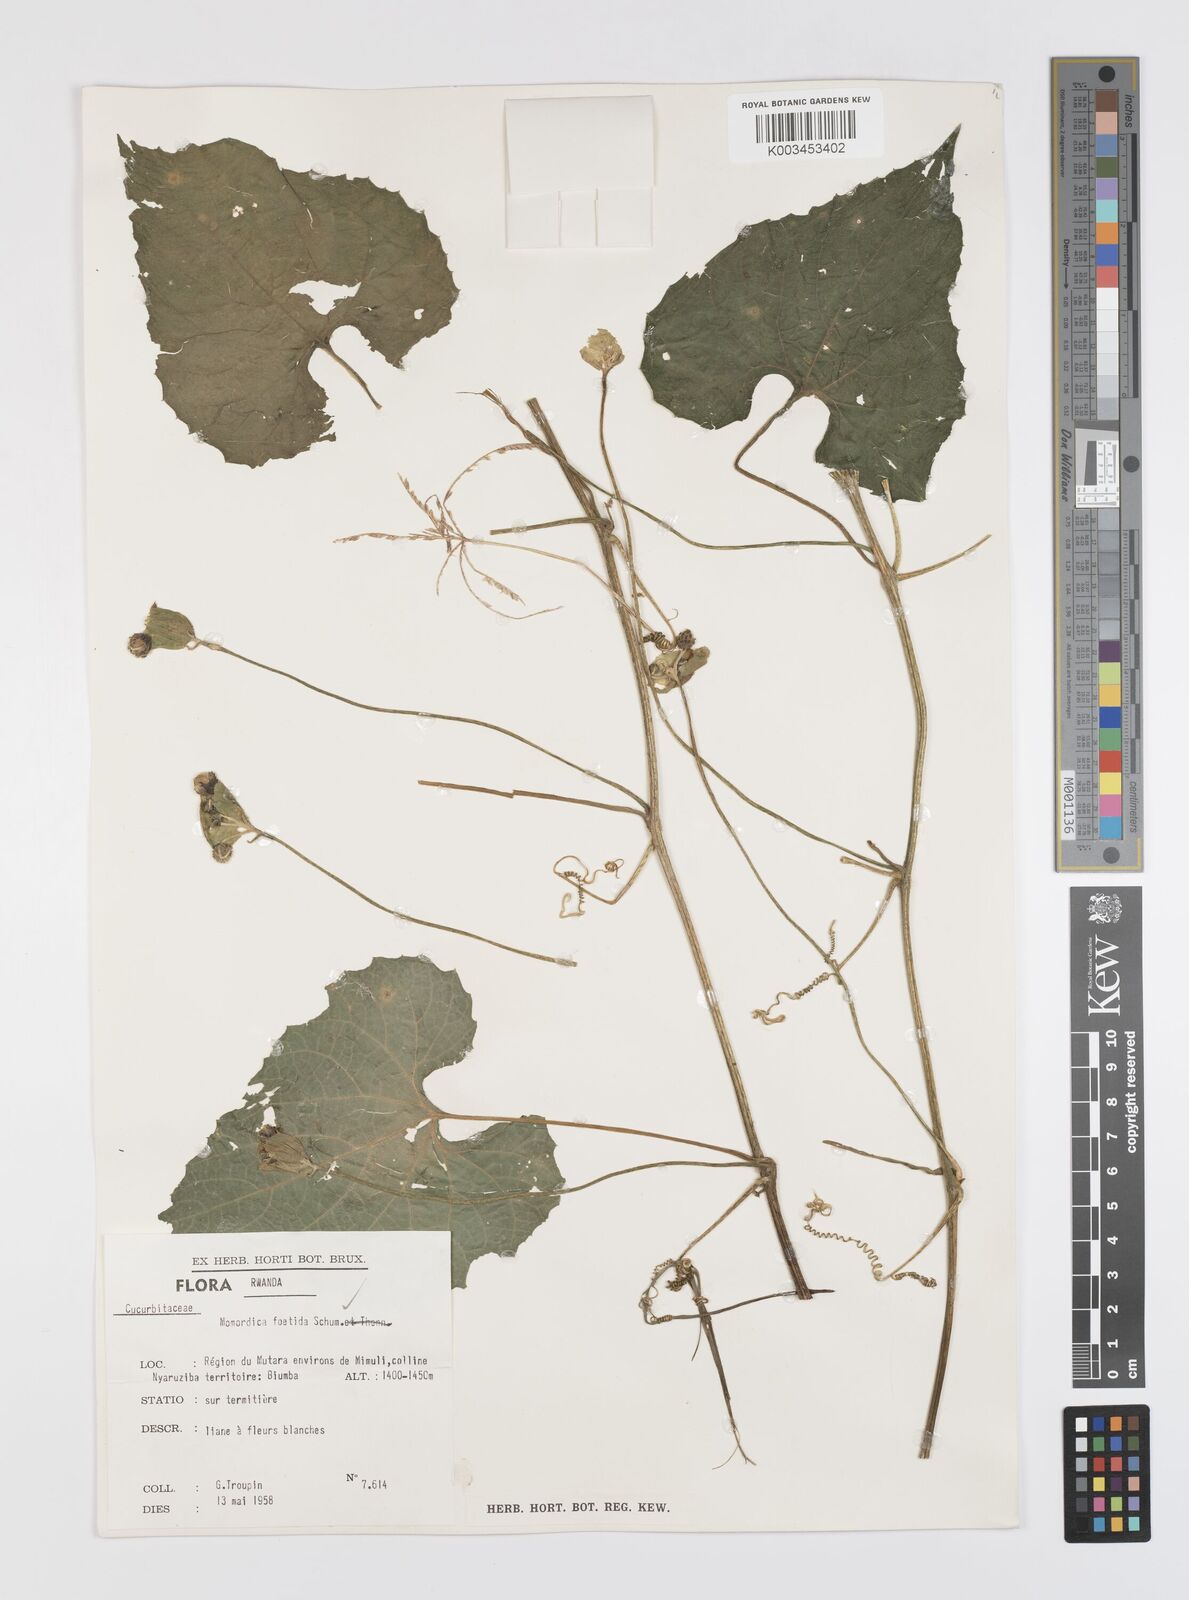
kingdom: Plantae
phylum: Tracheophyta
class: Magnoliopsida
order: Cucurbitales
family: Cucurbitaceae
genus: Momordica
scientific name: Momordica foetida
